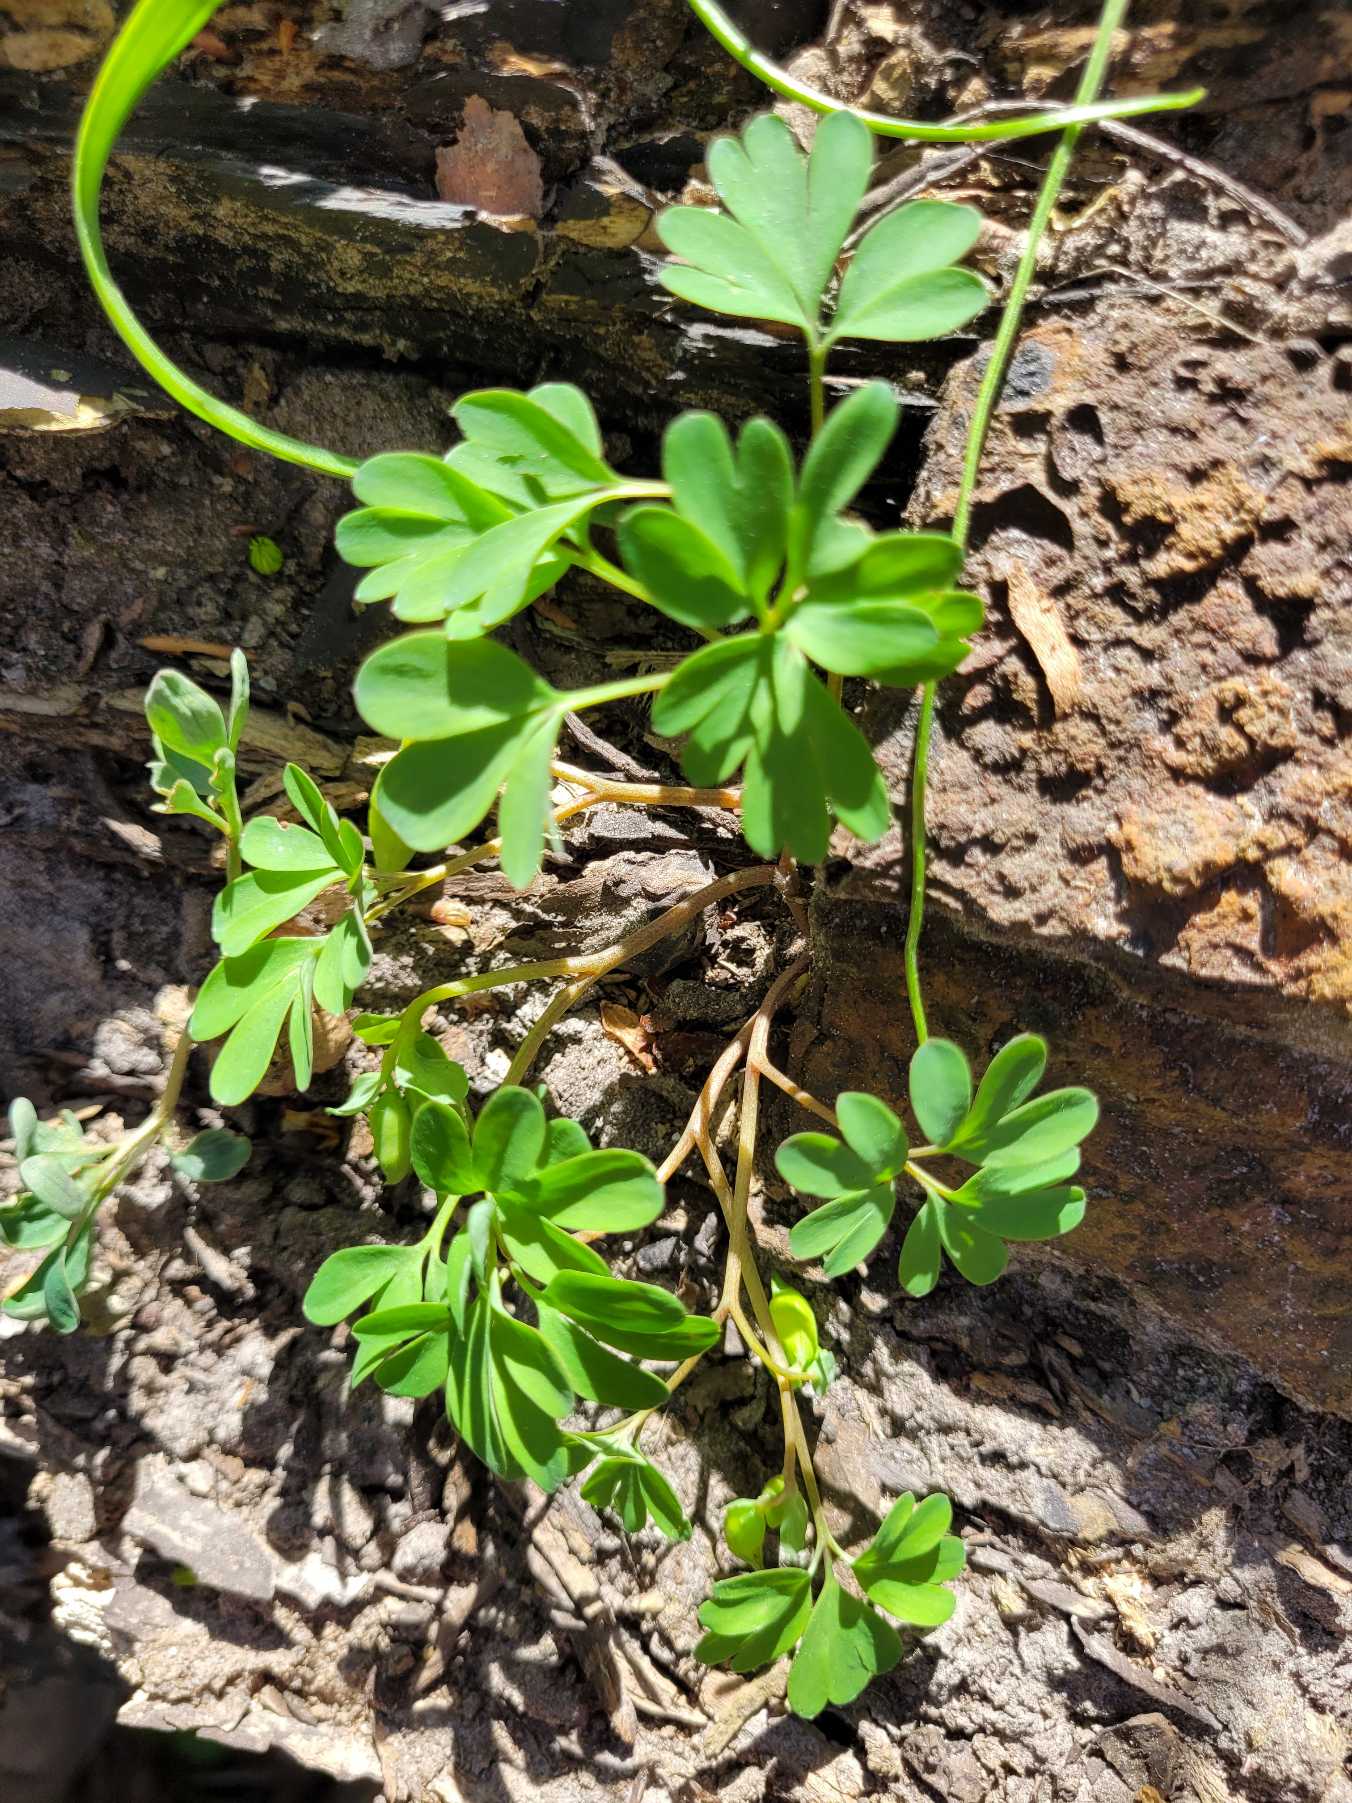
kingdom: Plantae
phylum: Tracheophyta
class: Magnoliopsida
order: Ranunculales
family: Papaveraceae
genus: Corydalis
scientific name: Corydalis intermedia
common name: Liden lærkespore
